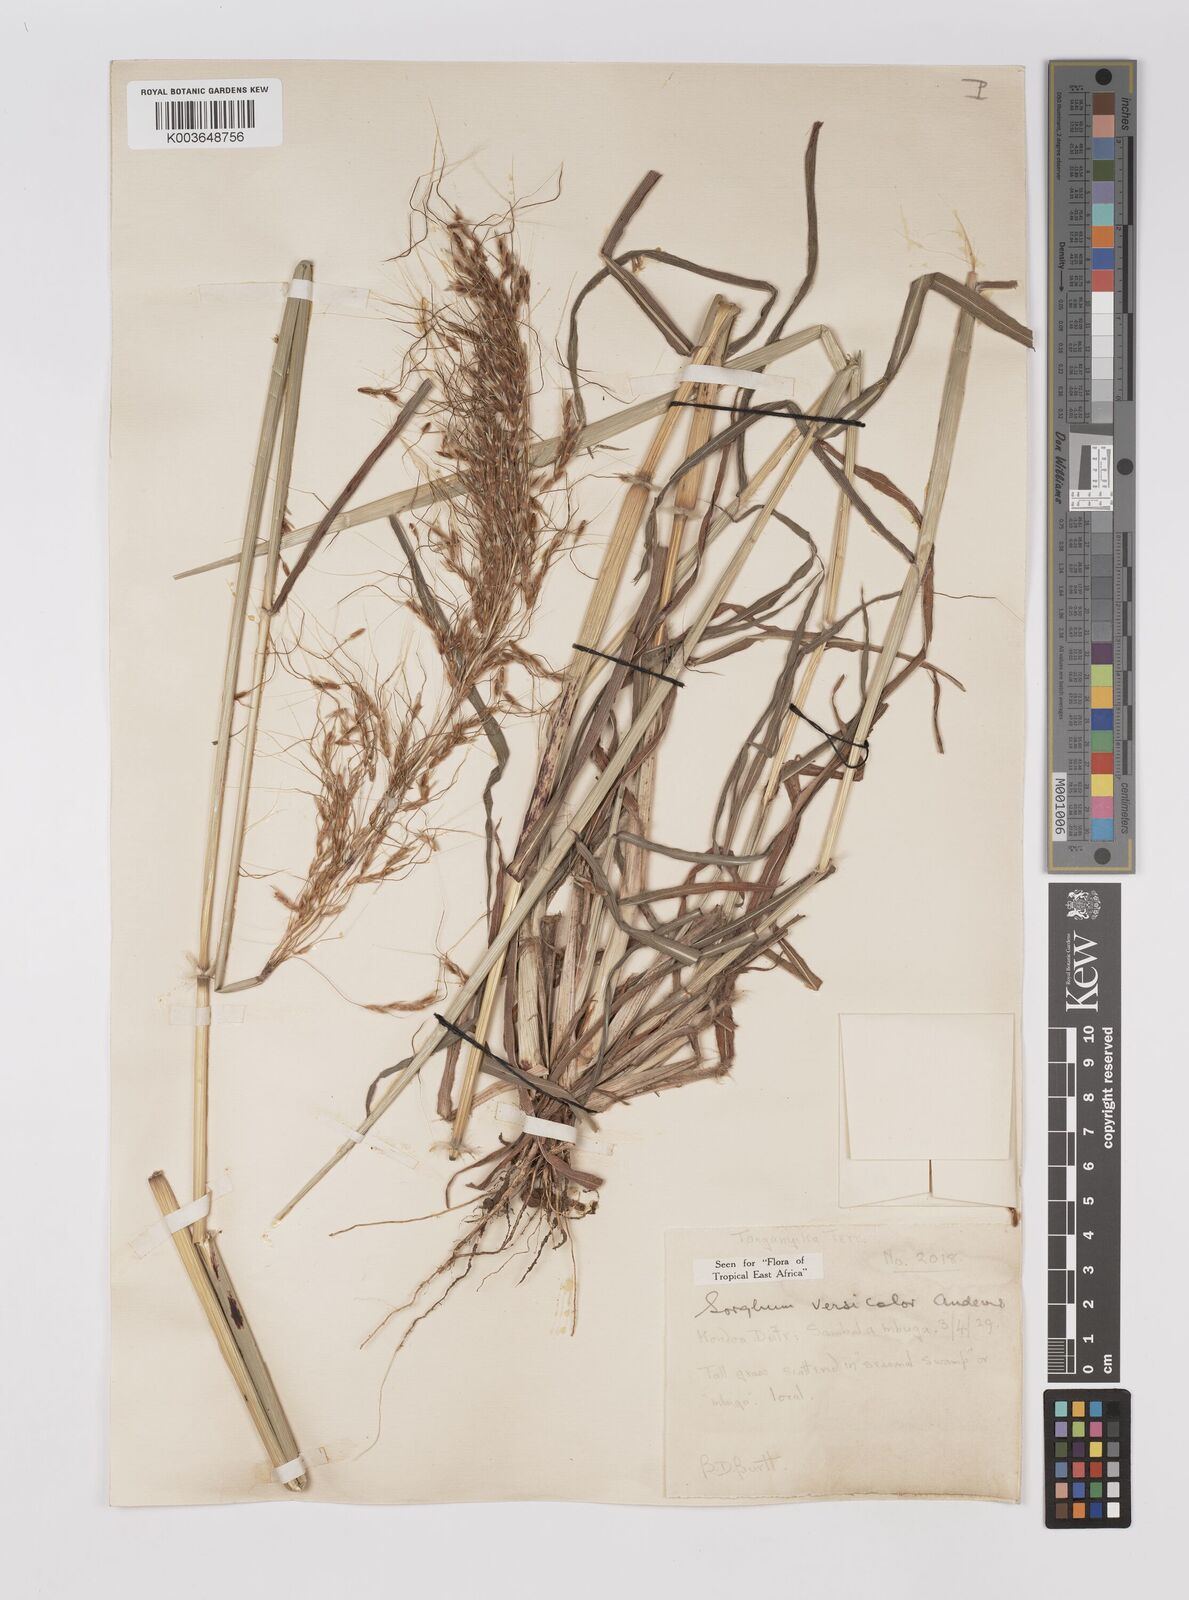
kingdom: Plantae
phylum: Tracheophyta
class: Liliopsida
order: Poales
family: Poaceae
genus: Sarga
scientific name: Sarga versicolor
